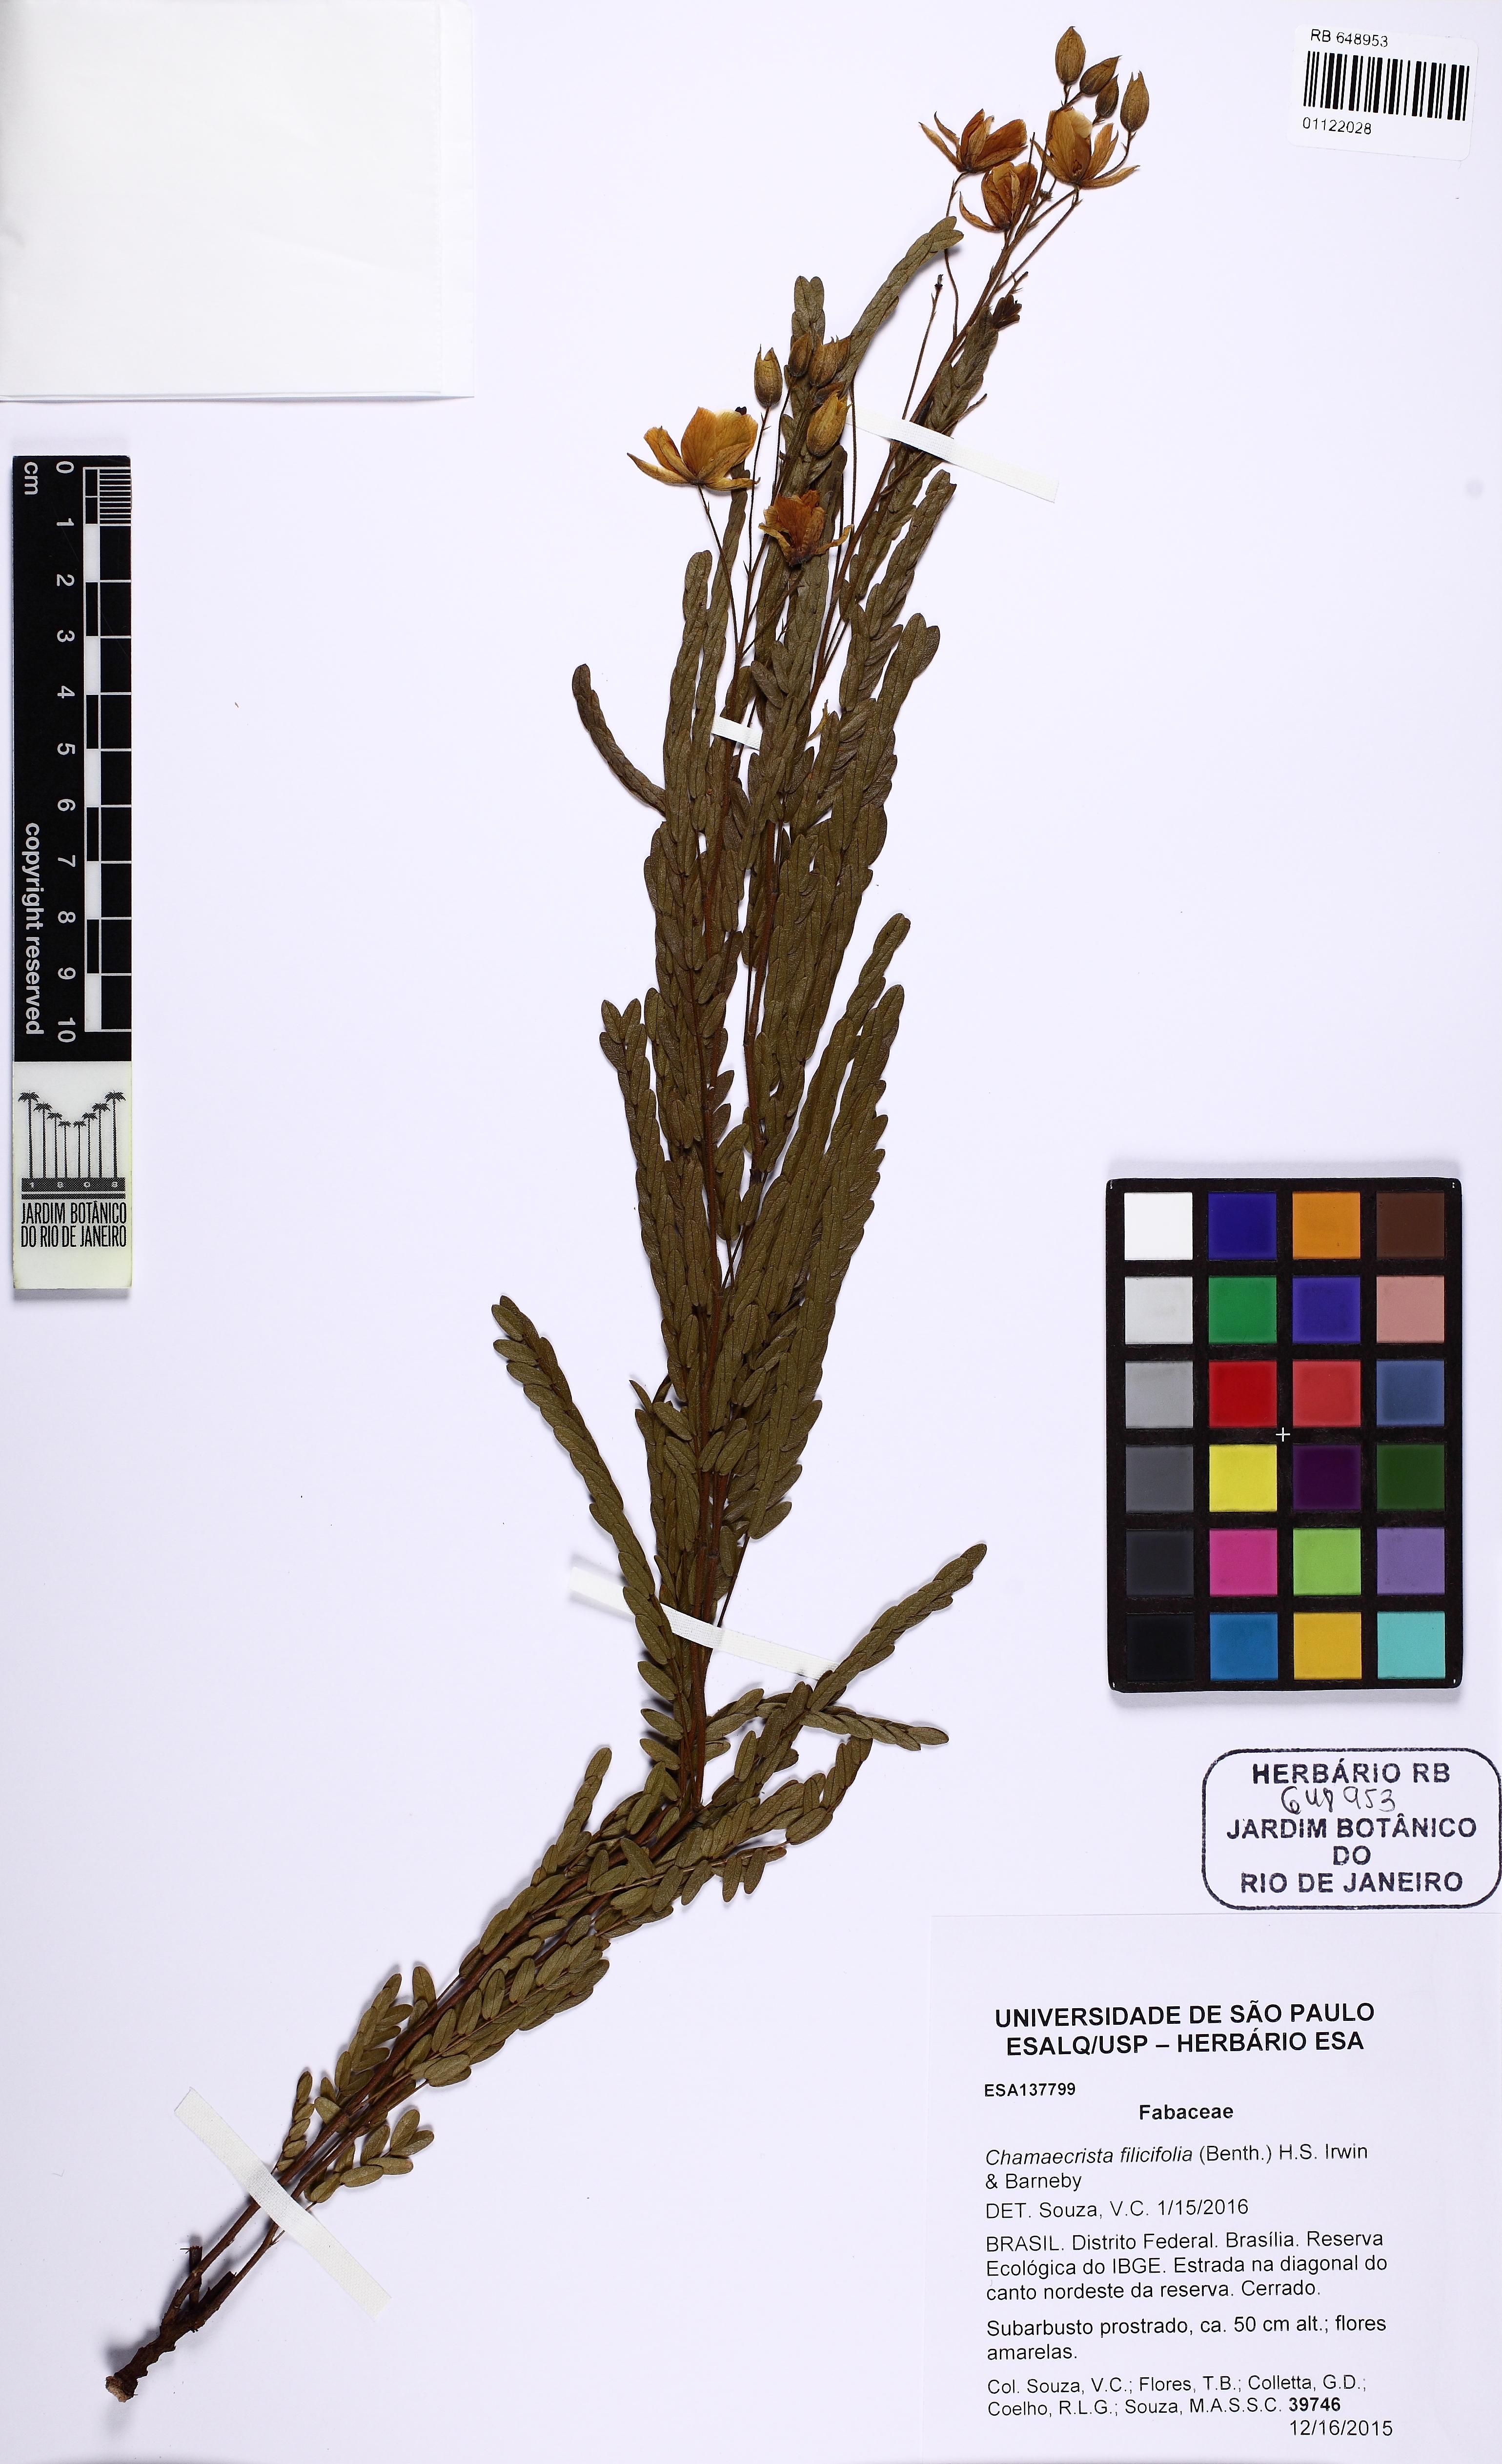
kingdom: Plantae
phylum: Tracheophyta
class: Magnoliopsida
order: Fabales
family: Fabaceae
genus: Chamaecrista
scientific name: Chamaecrista filicifolia
